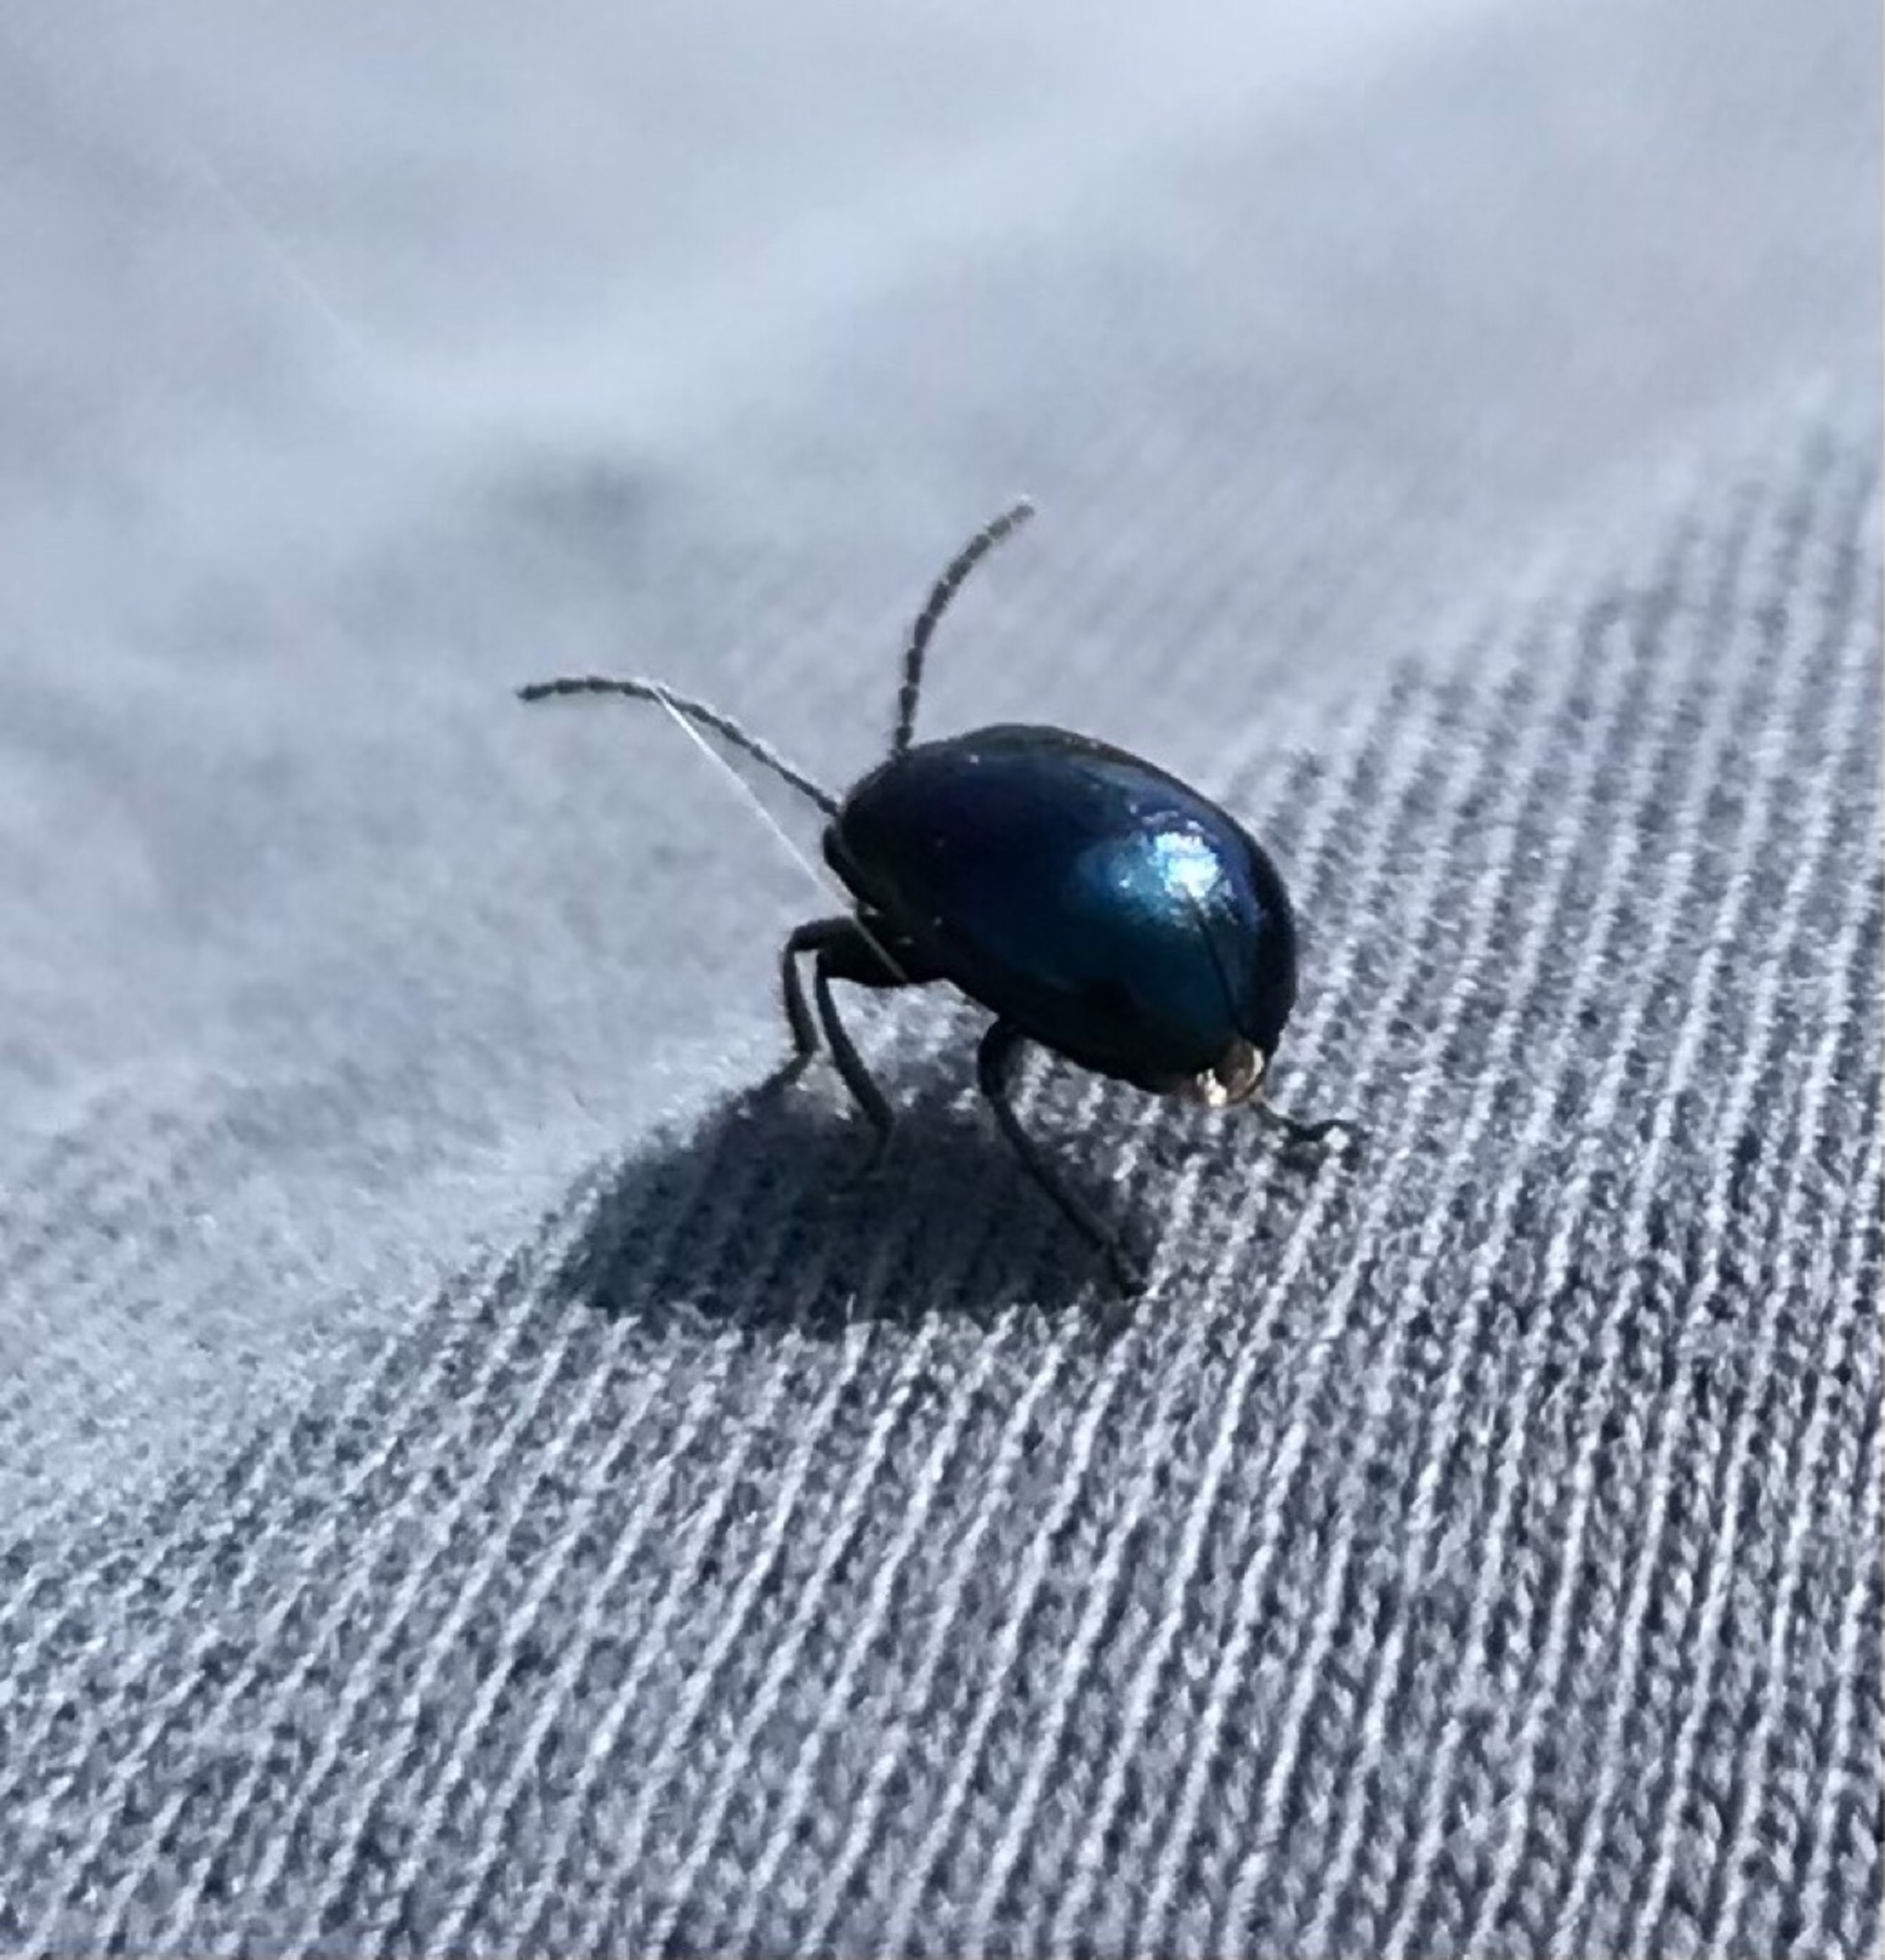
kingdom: Animalia
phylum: Arthropoda
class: Insecta
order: Coleoptera
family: Chrysomelidae
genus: Agelastica
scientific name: Agelastica alni
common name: Ellebladbille
